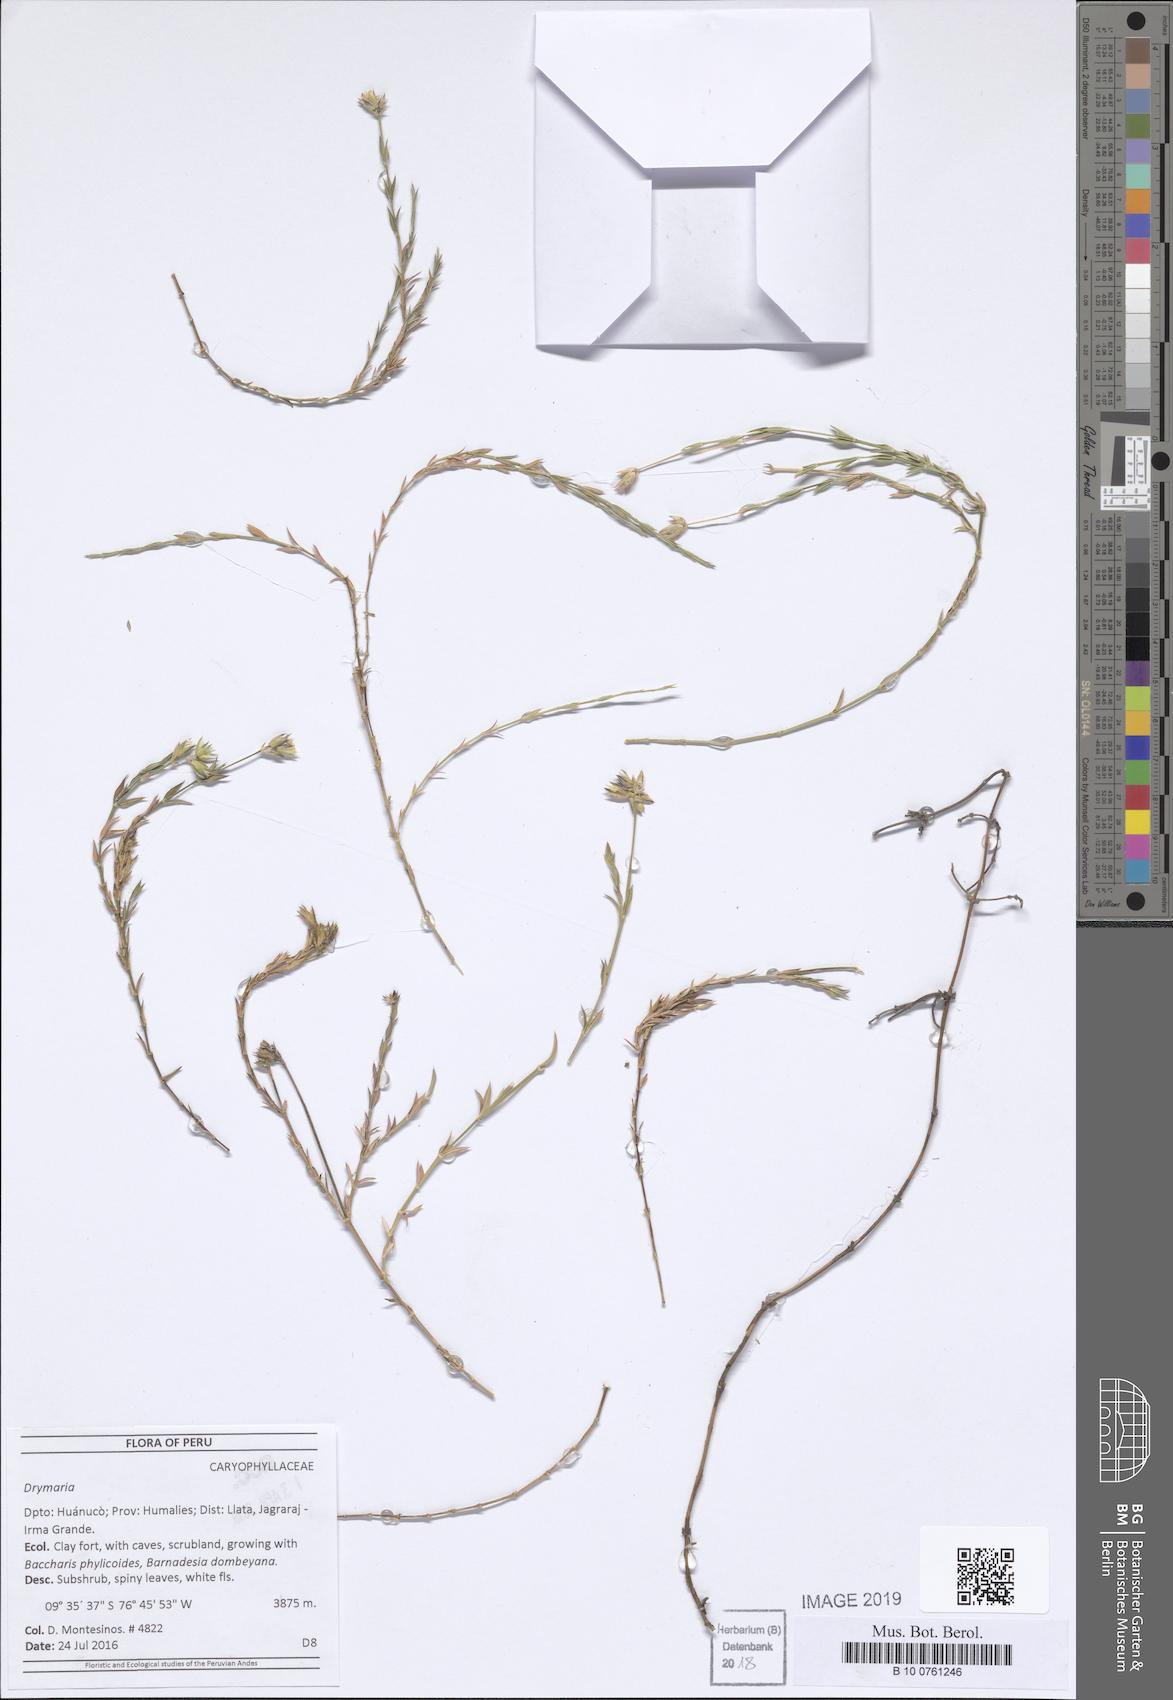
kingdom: Plantae
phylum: Tracheophyta
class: Magnoliopsida
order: Caryophyllales
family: Caryophyllaceae
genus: Drymaria
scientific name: Drymaria
